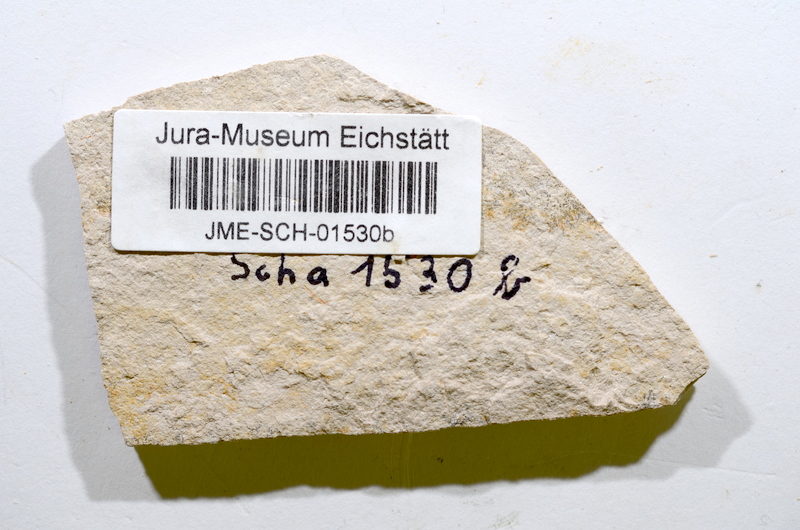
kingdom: Animalia
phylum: Chordata
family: Aspidorhynchidae
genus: Aspidorhynchus
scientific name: Aspidorhynchus
